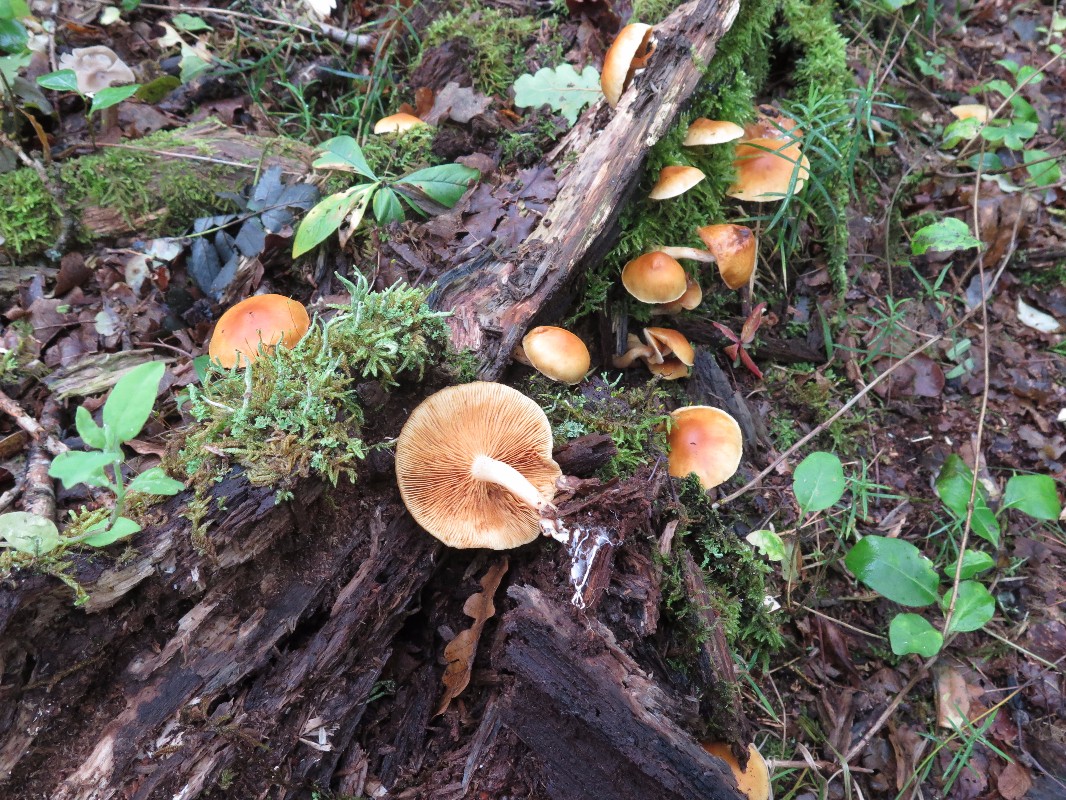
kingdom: Fungi
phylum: Basidiomycota
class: Agaricomycetes
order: Agaricales
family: Hymenogastraceae
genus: Gymnopilus
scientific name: Gymnopilus spectabilis
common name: fibret flammehat
